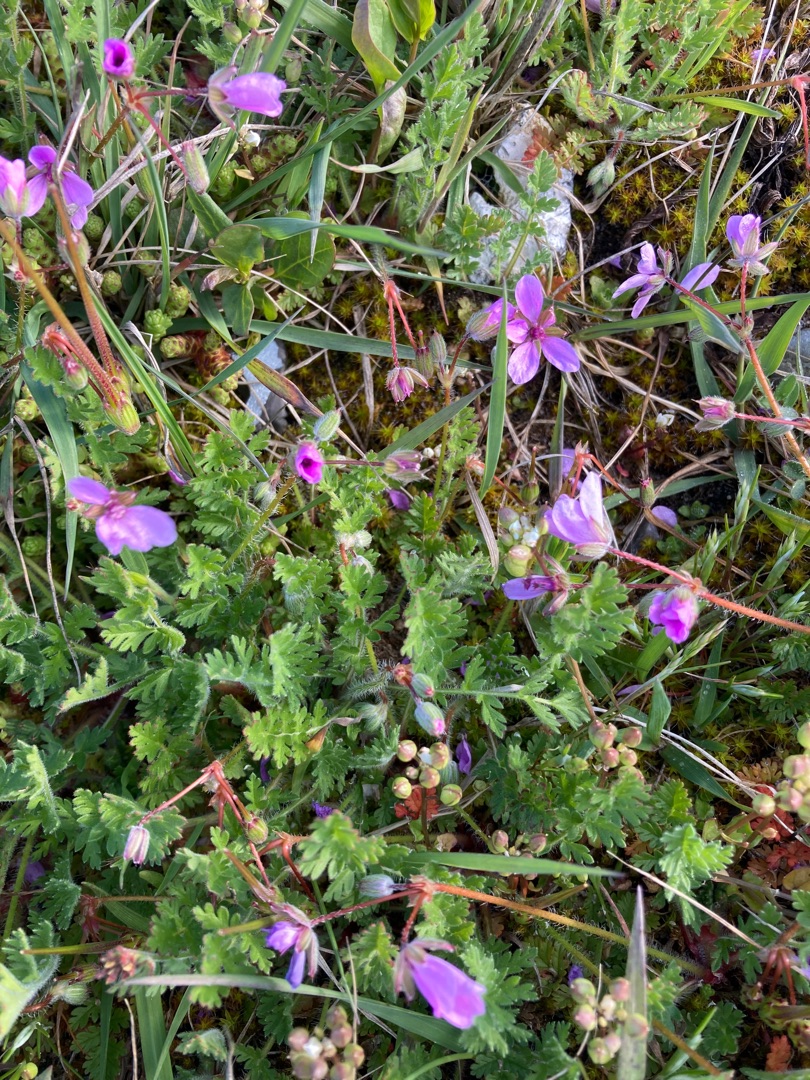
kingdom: Plantae
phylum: Tracheophyta
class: Magnoliopsida
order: Geraniales
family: Geraniaceae
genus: Erodium
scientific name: Erodium cicutarium
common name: Hejrenæb
